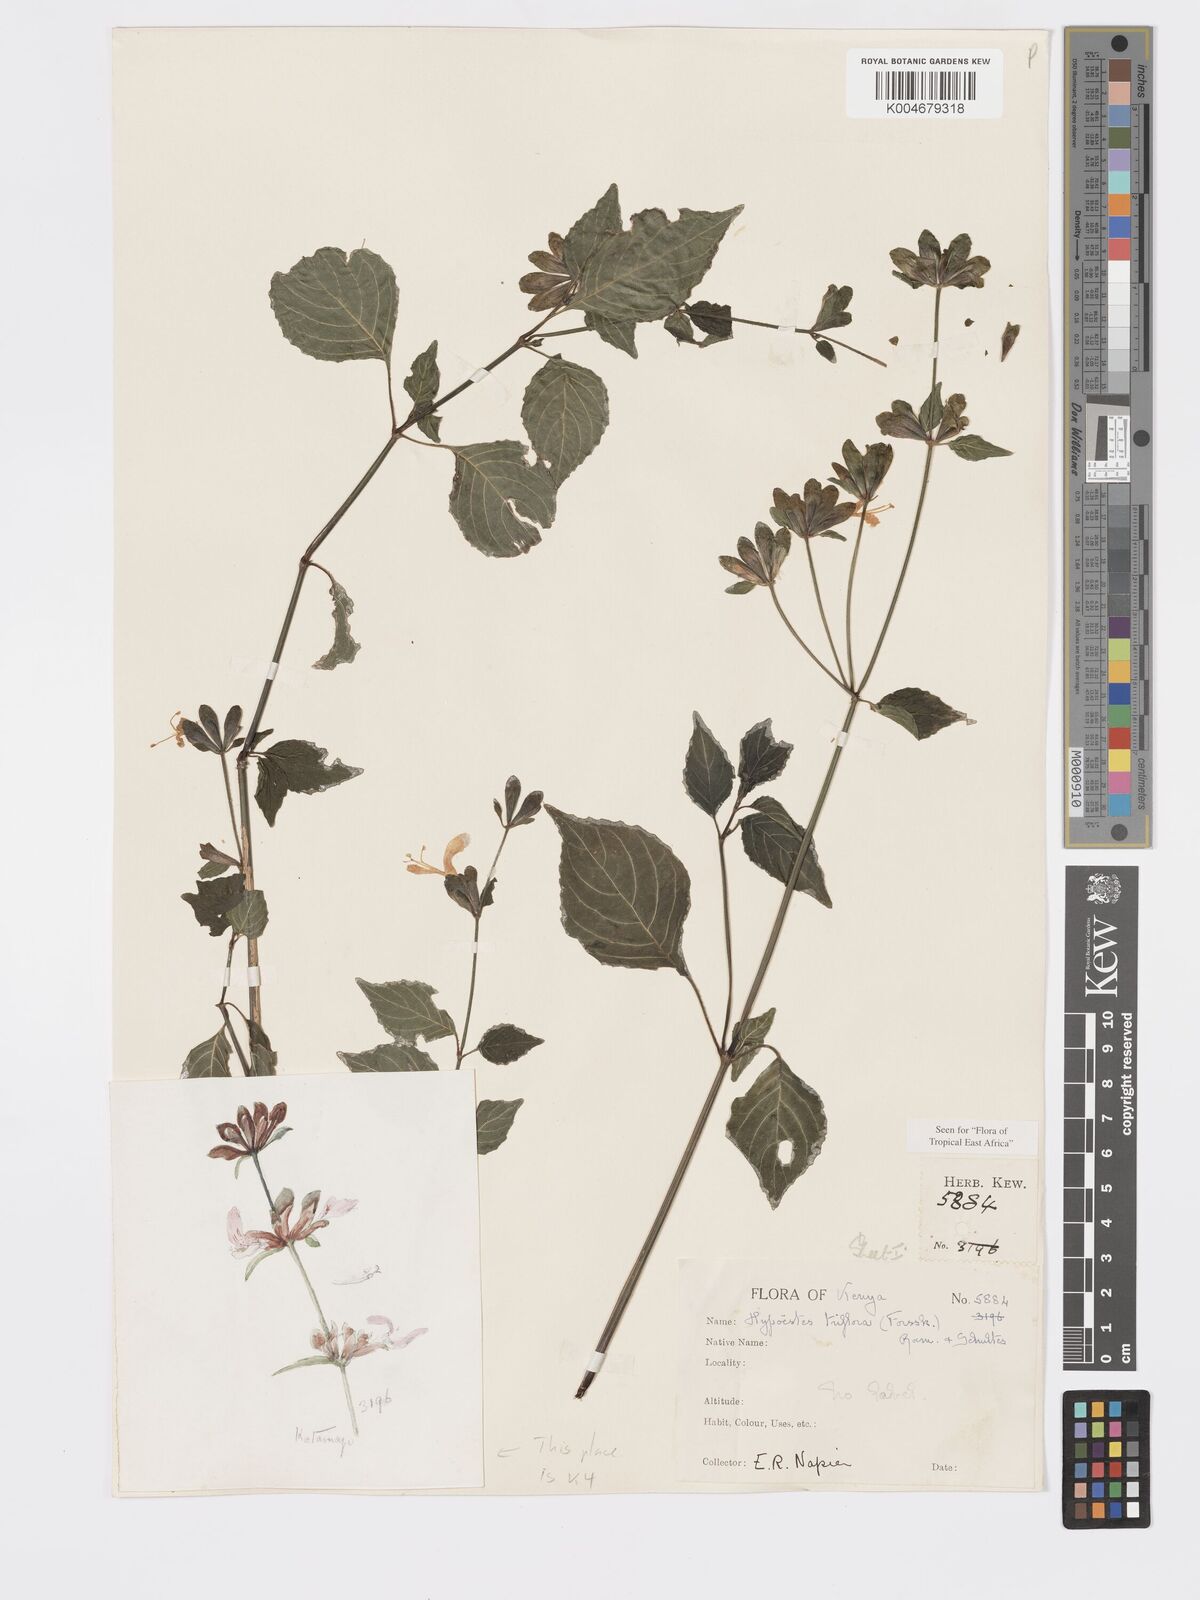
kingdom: Plantae
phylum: Tracheophyta
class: Magnoliopsida
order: Lamiales
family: Acanthaceae
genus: Hypoestes
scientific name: Hypoestes triflora
